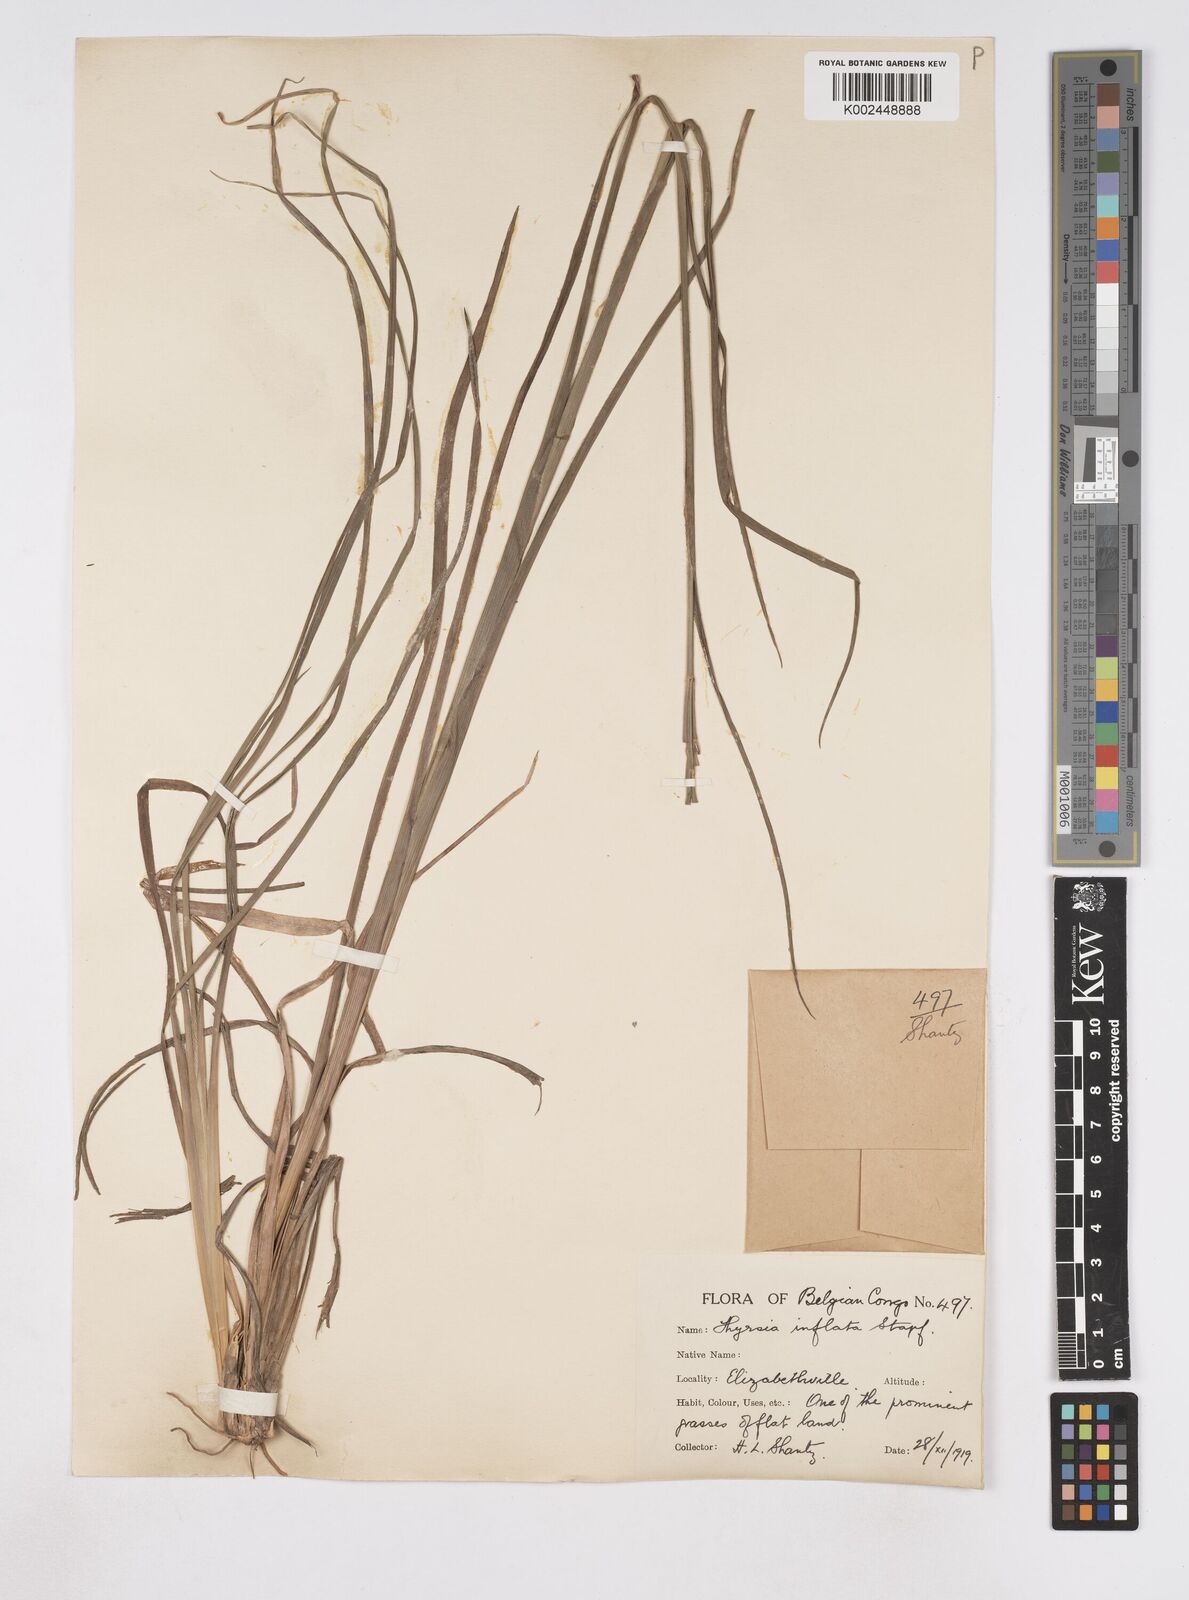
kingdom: Plantae
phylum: Tracheophyta
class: Liliopsida
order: Poales
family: Poaceae
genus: Thyrsia
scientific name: Thyrsia huillensis
